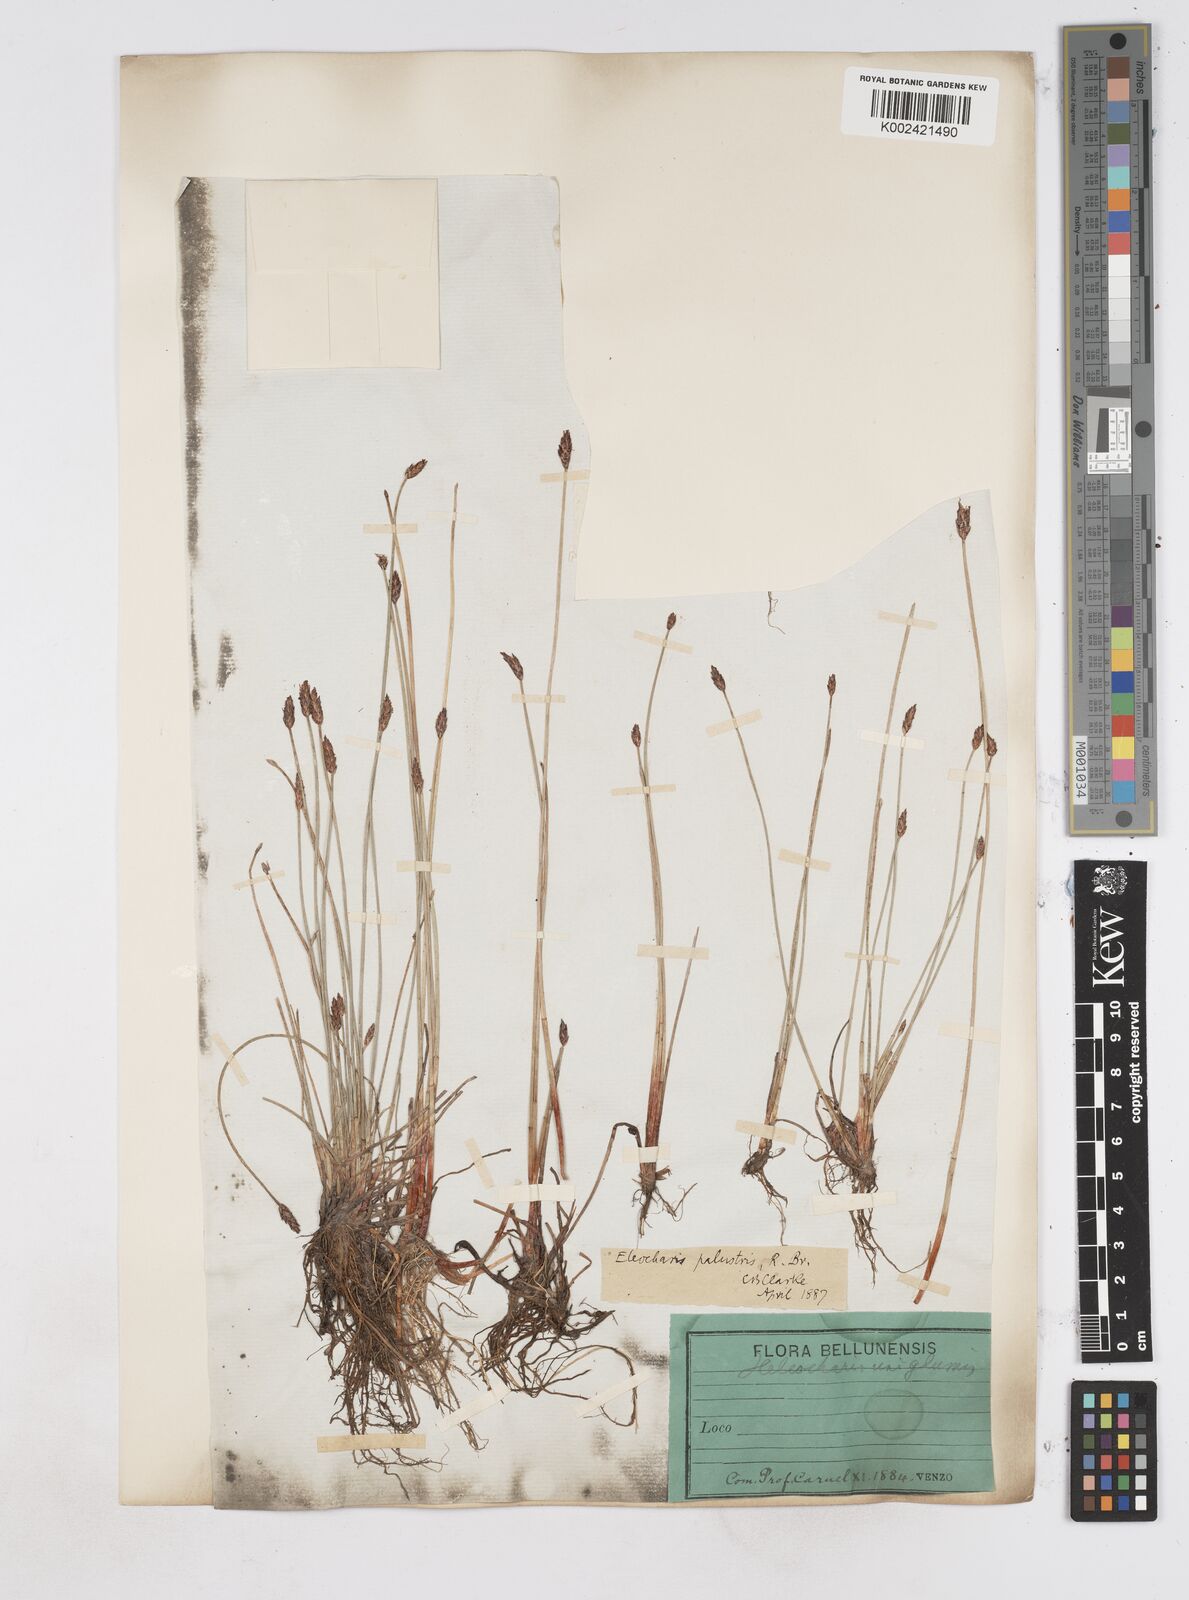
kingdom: Plantae
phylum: Tracheophyta
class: Liliopsida
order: Poales
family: Cyperaceae
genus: Eleocharis
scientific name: Eleocharis uniglumis
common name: Slender spike-rush
